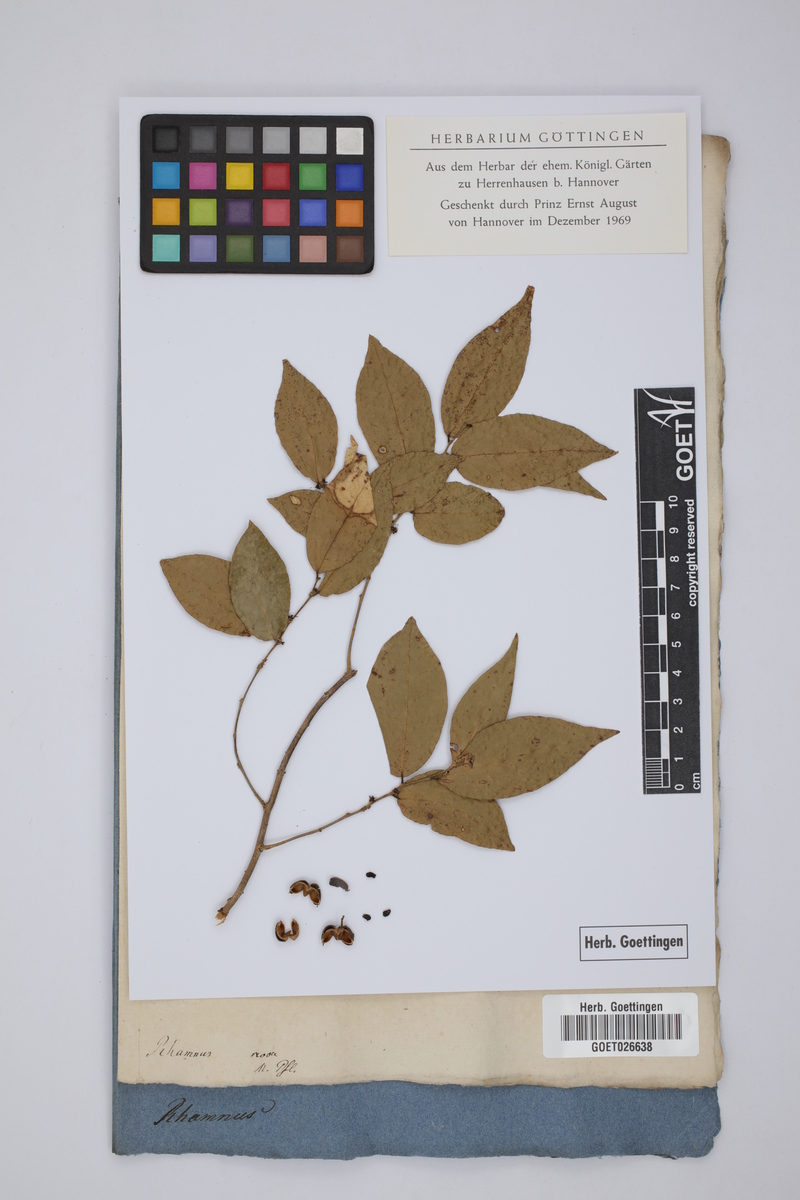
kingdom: Plantae
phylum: Tracheophyta
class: Magnoliopsida
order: Rosales
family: Rhamnaceae
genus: Rhamnus
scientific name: Rhamnus
